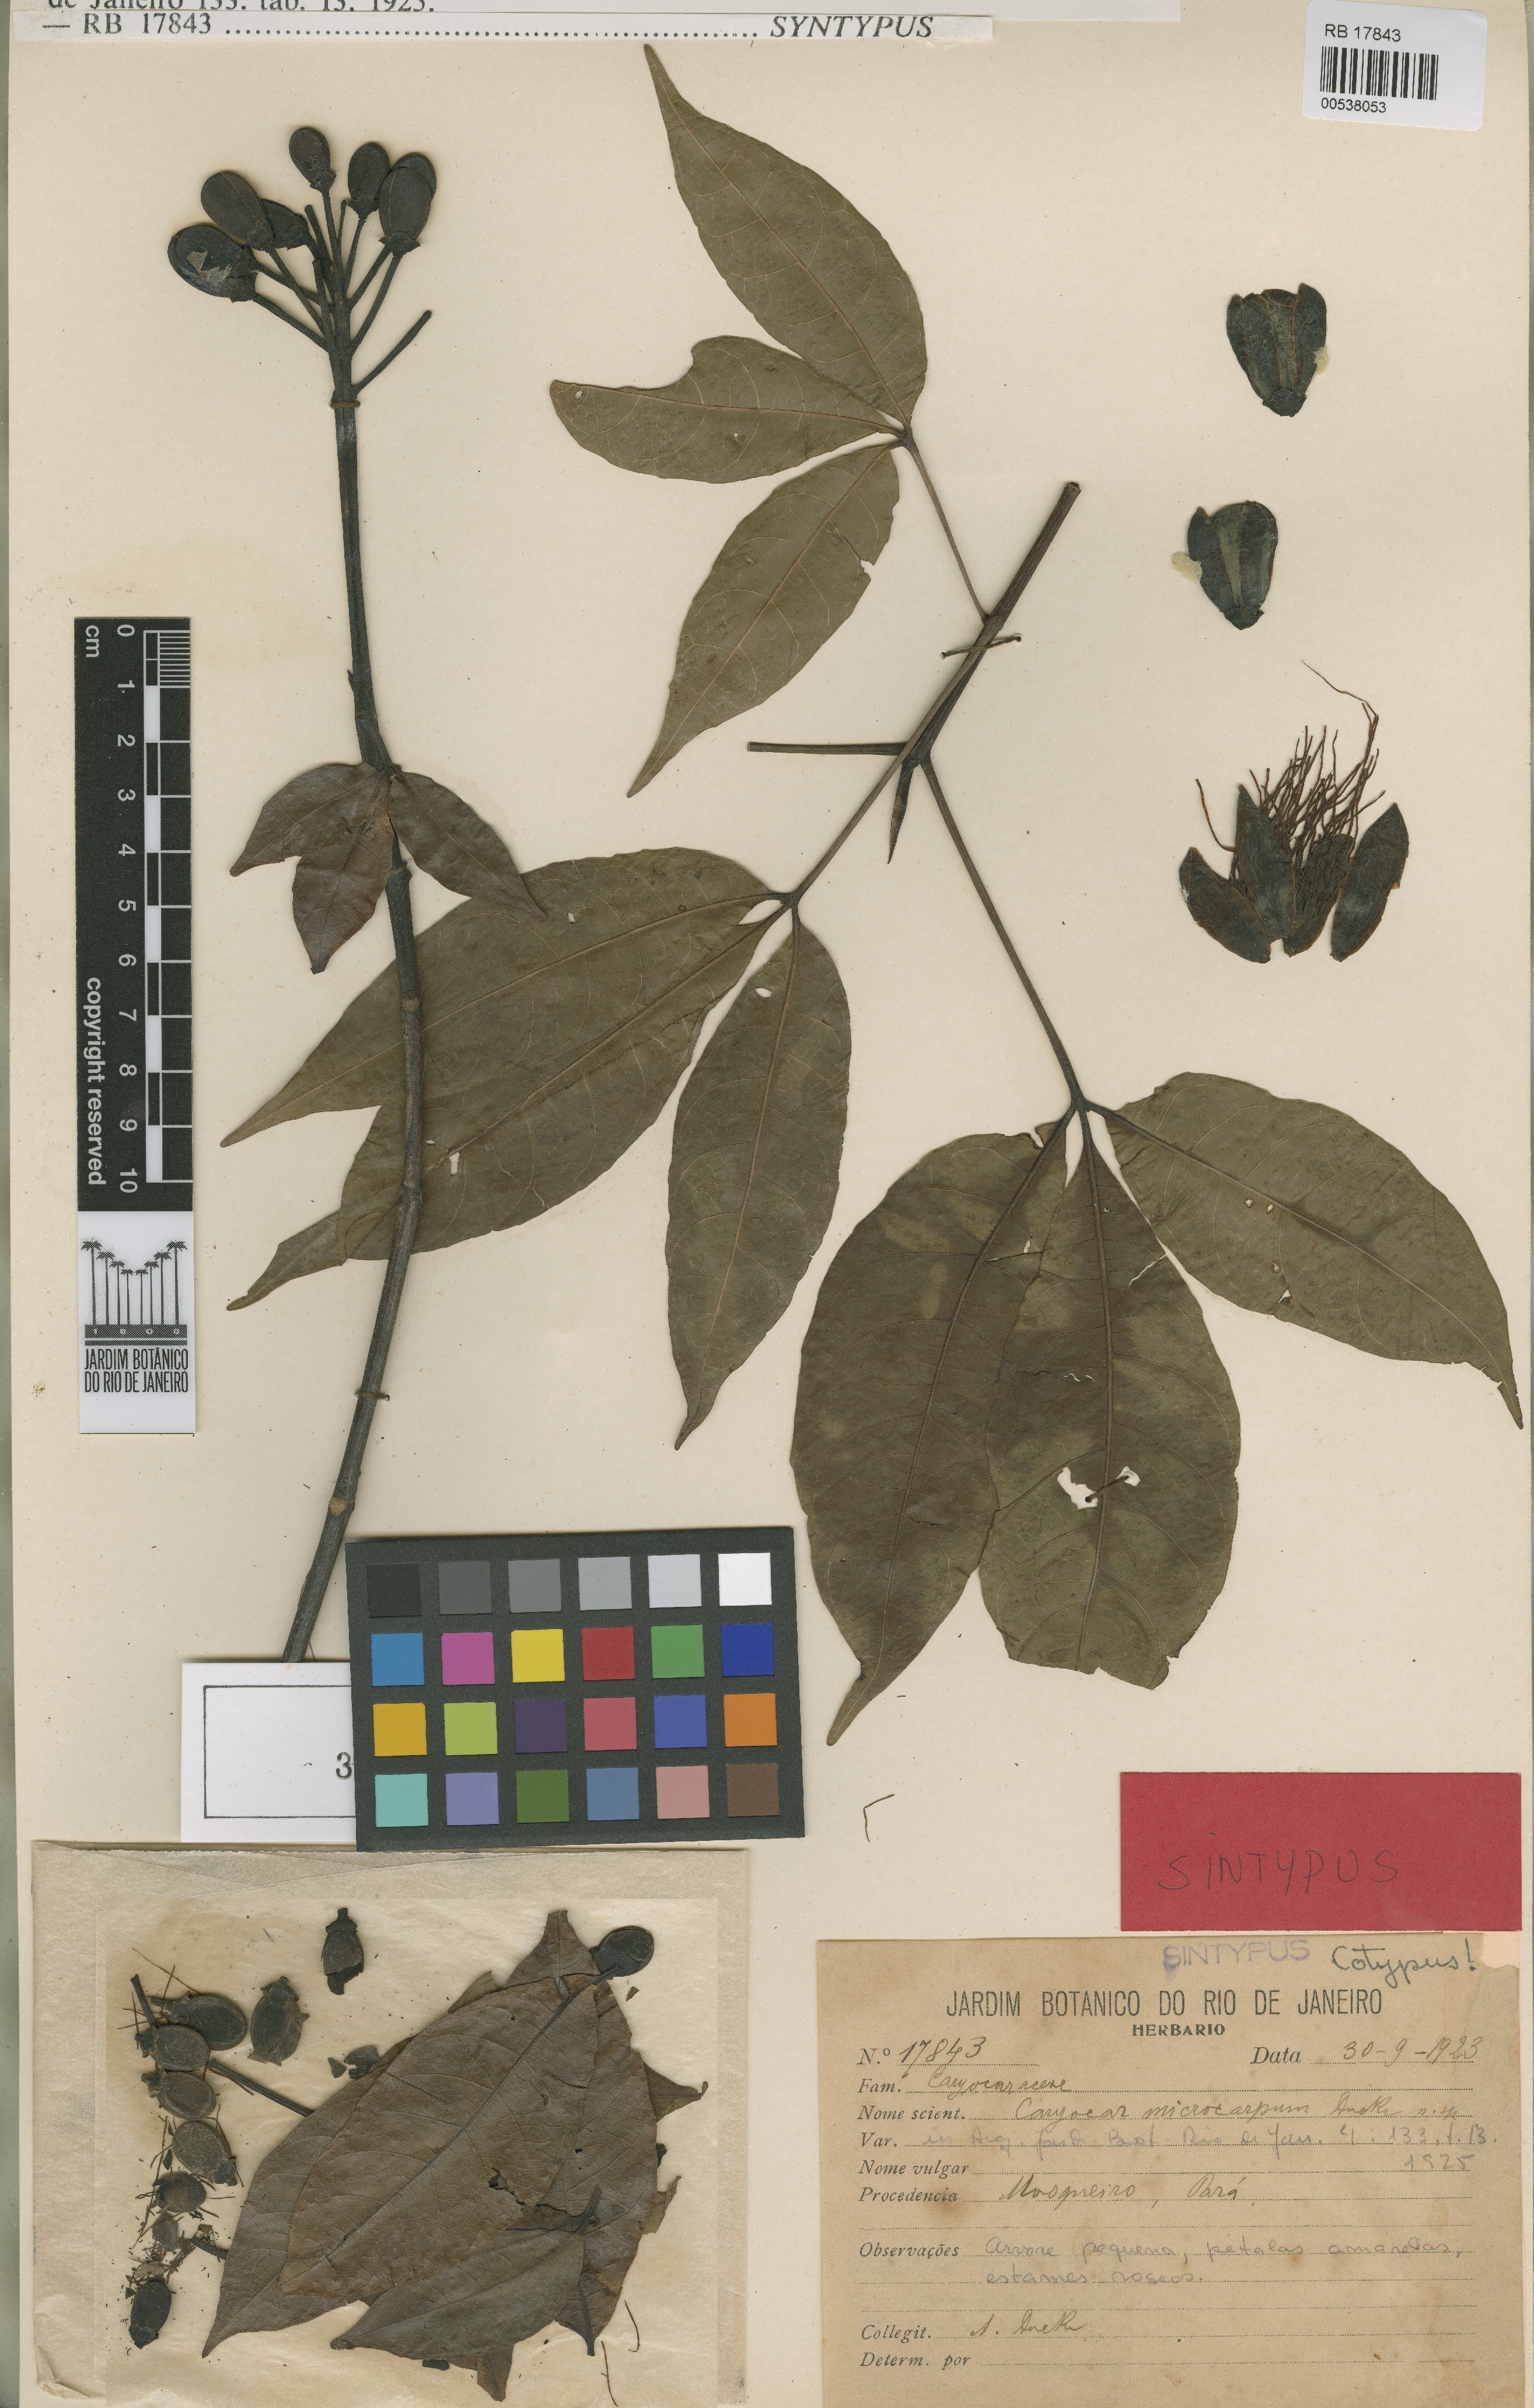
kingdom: Plantae
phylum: Tracheophyta
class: Magnoliopsida
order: Malpighiales
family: Caryocaraceae
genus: Caryocar
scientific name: Caryocar microcarpum
